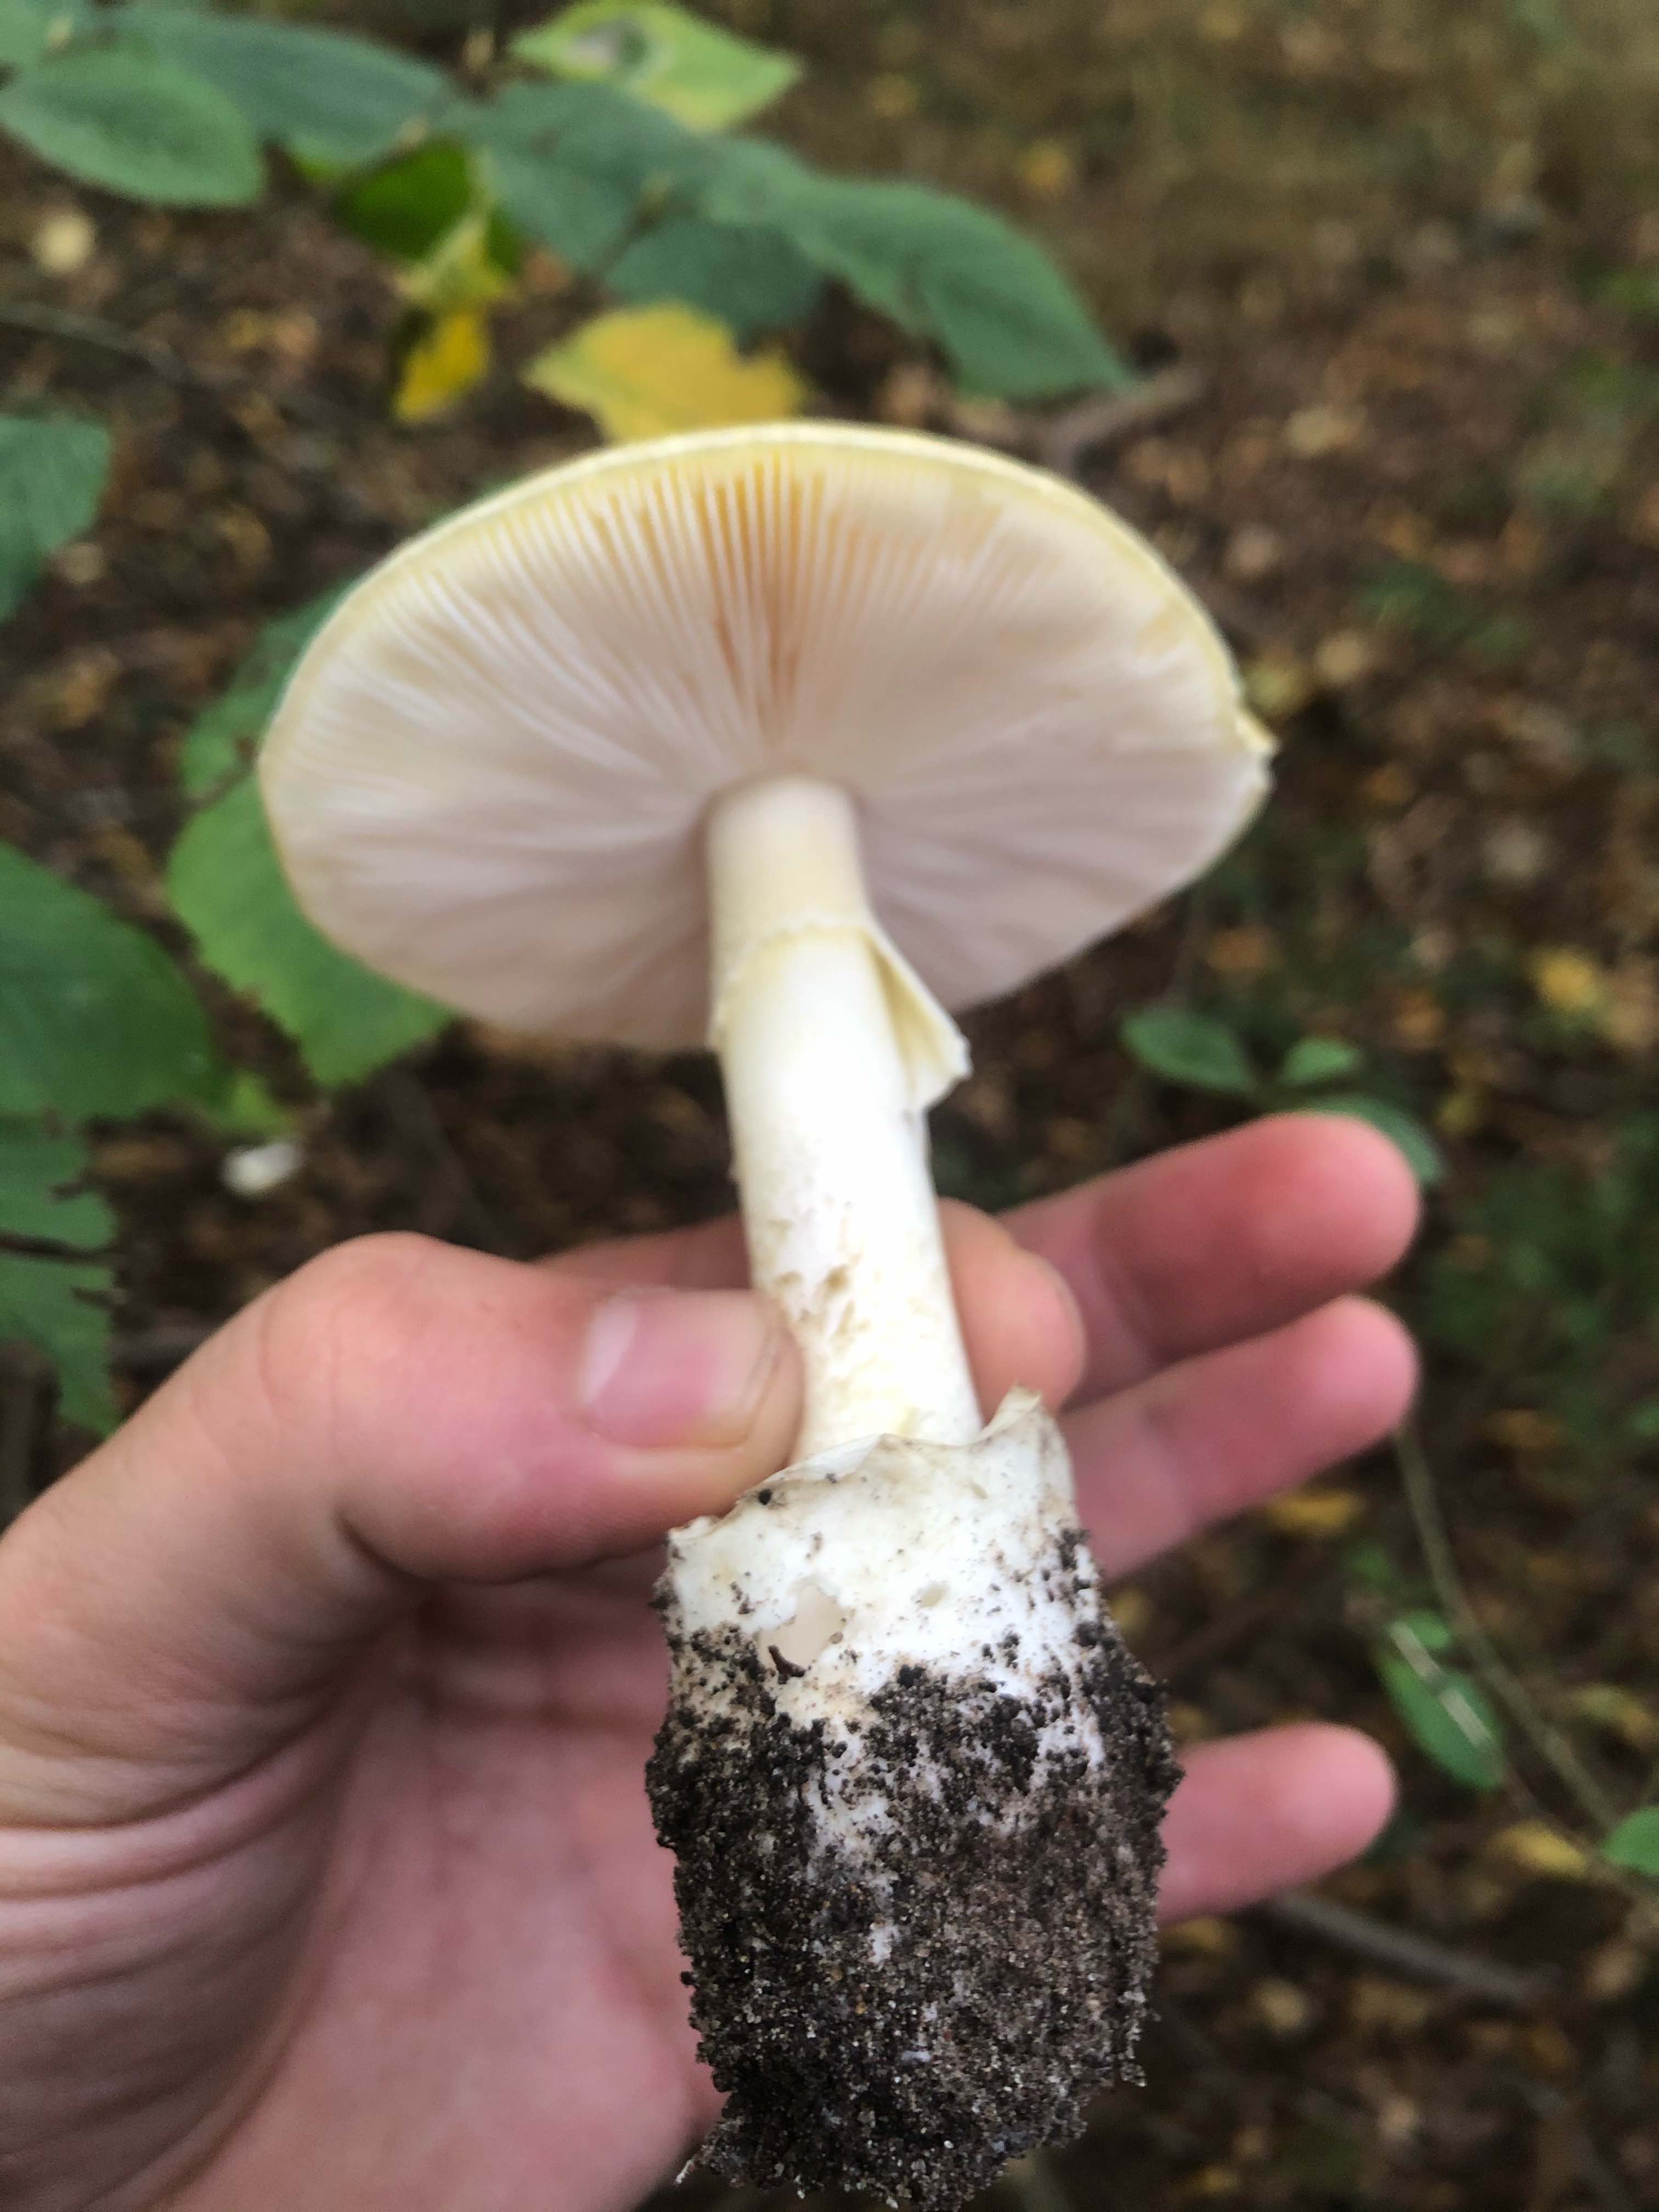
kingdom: Fungi
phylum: Basidiomycota
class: Agaricomycetes
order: Agaricales
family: Amanitaceae
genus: Amanita
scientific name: Amanita phalloides
